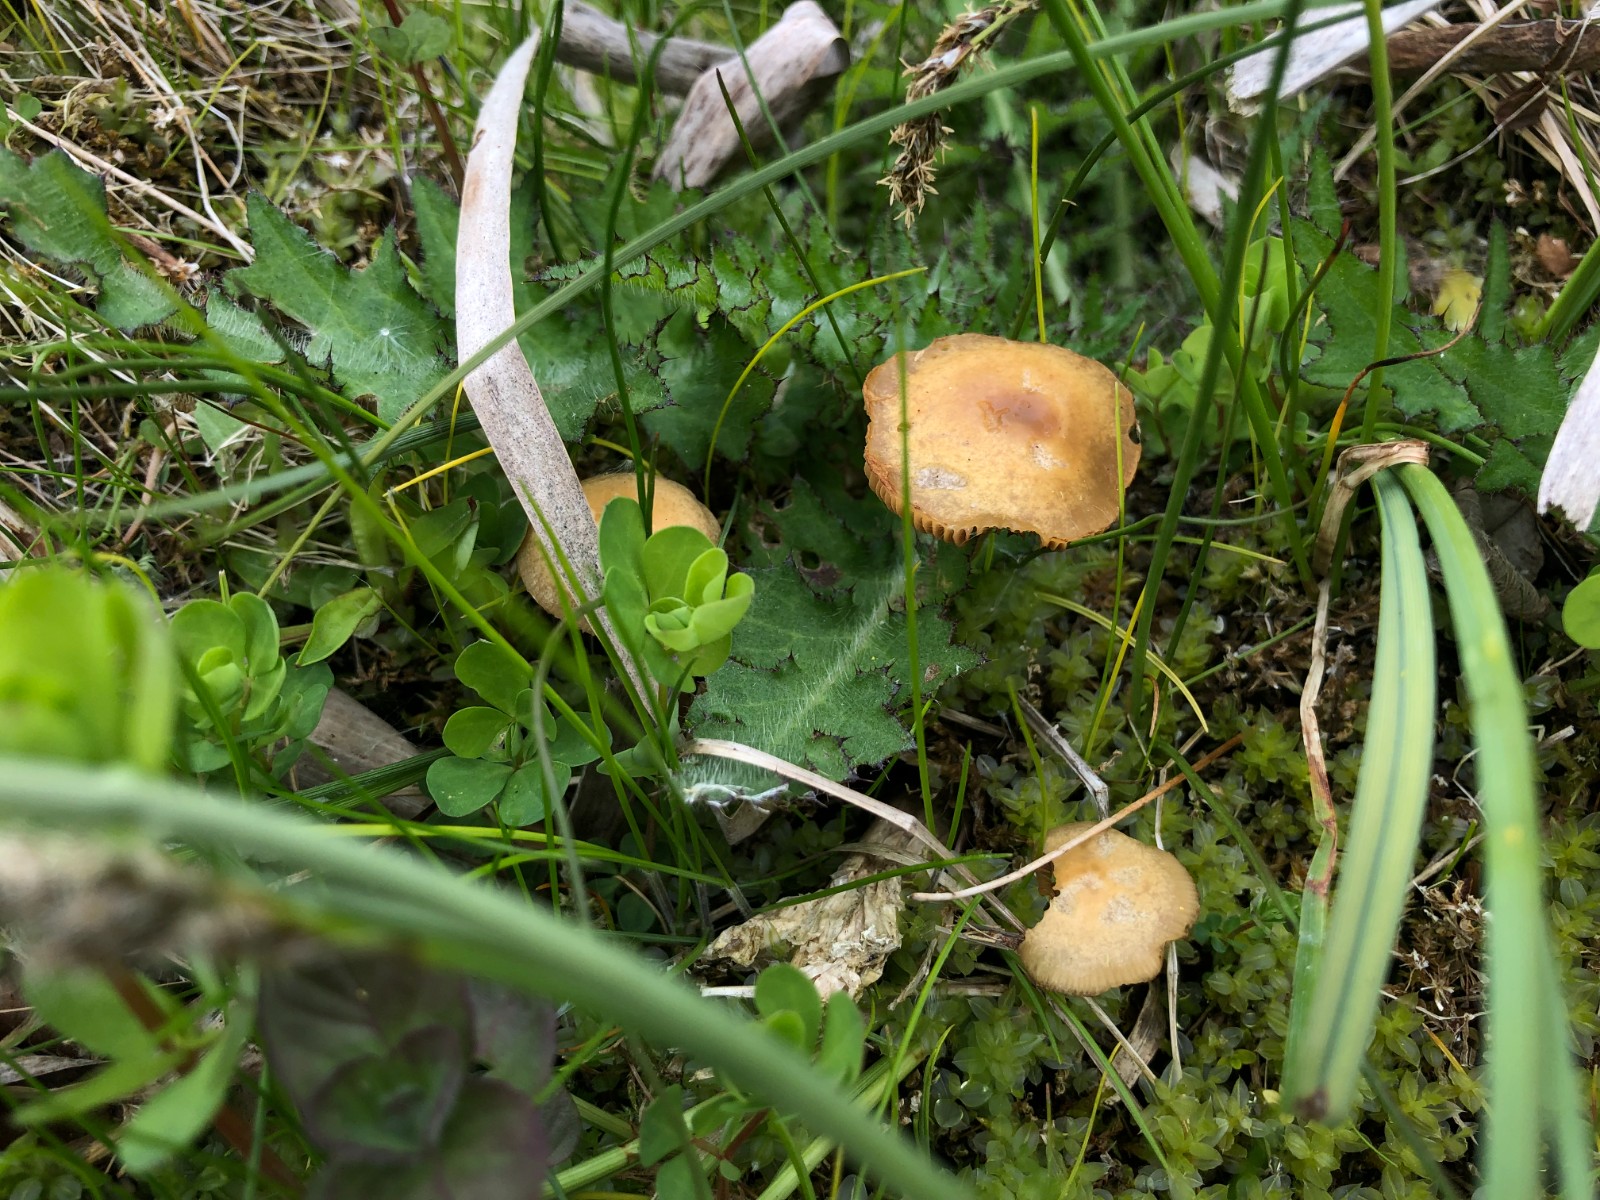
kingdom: Fungi
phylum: Basidiomycota
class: Agaricomycetes
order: Agaricales
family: Strophariaceae
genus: Agrocybe
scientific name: Agrocybe
